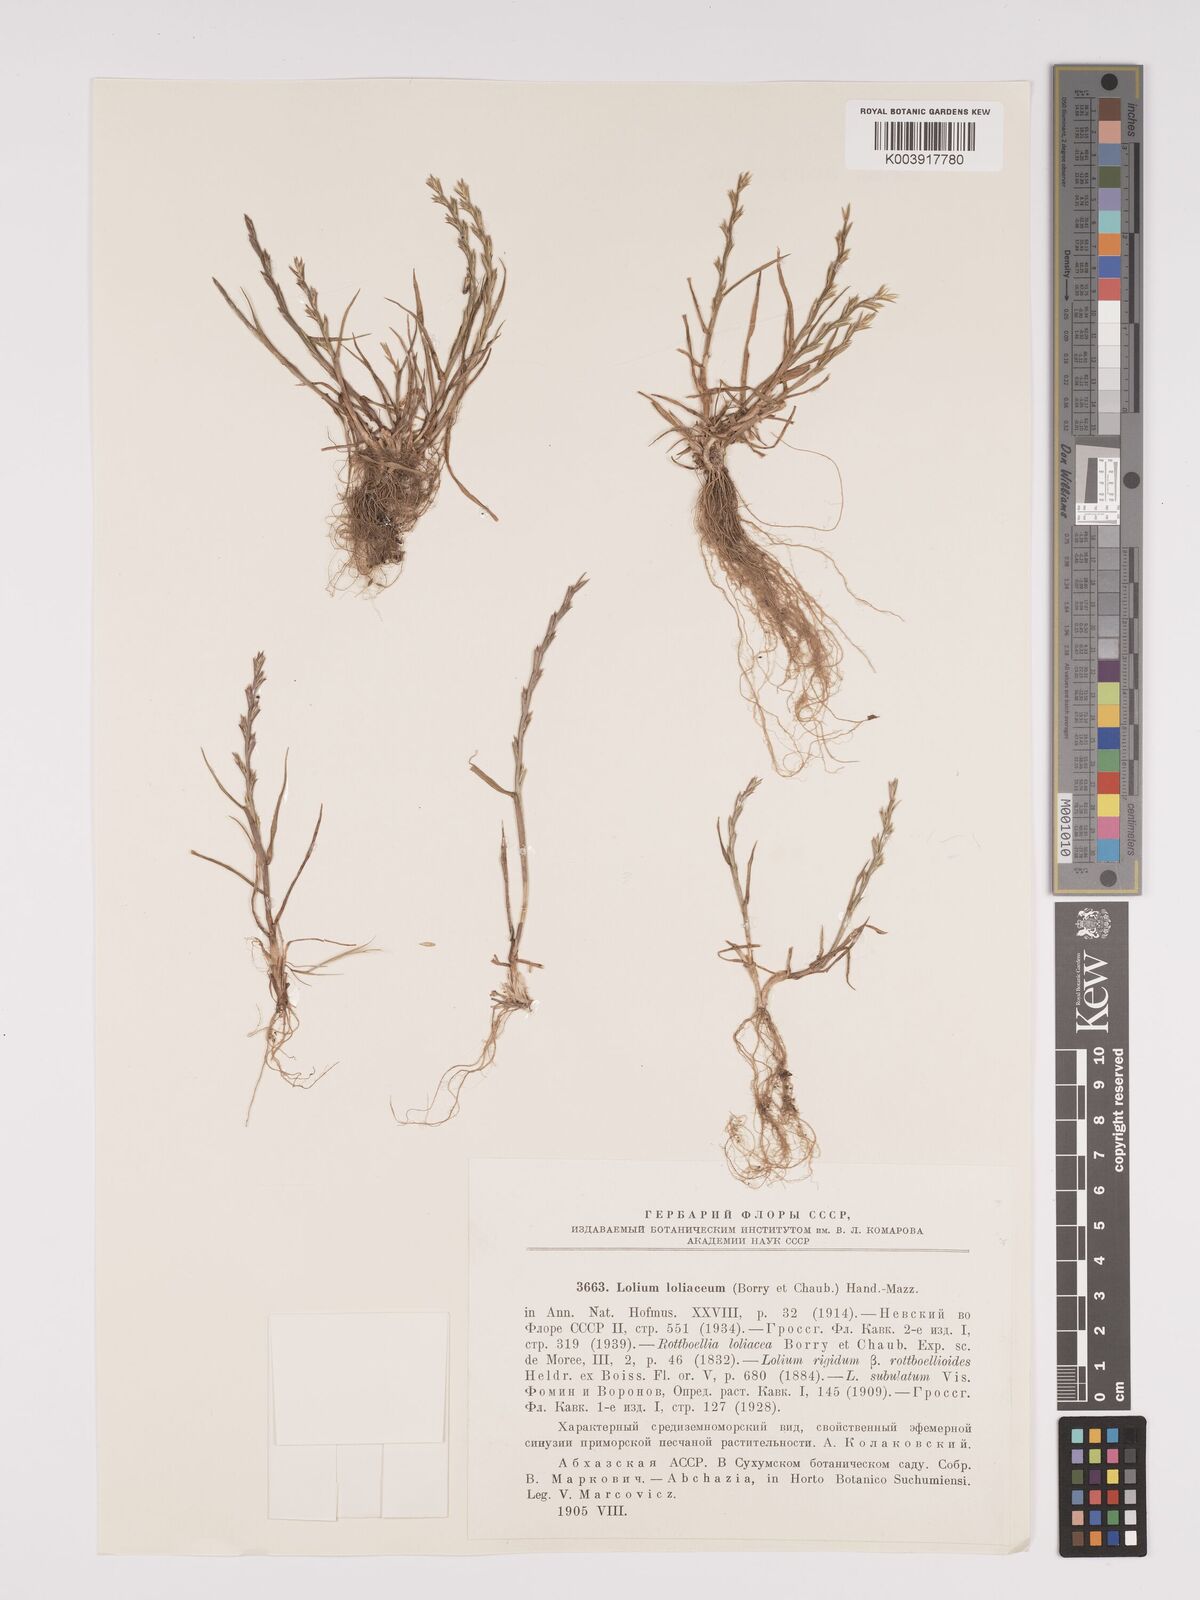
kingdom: Plantae
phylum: Tracheophyta
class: Liliopsida
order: Poales
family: Poaceae
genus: Lolium
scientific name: Lolium rigidum
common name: Wimmera ryegrass
